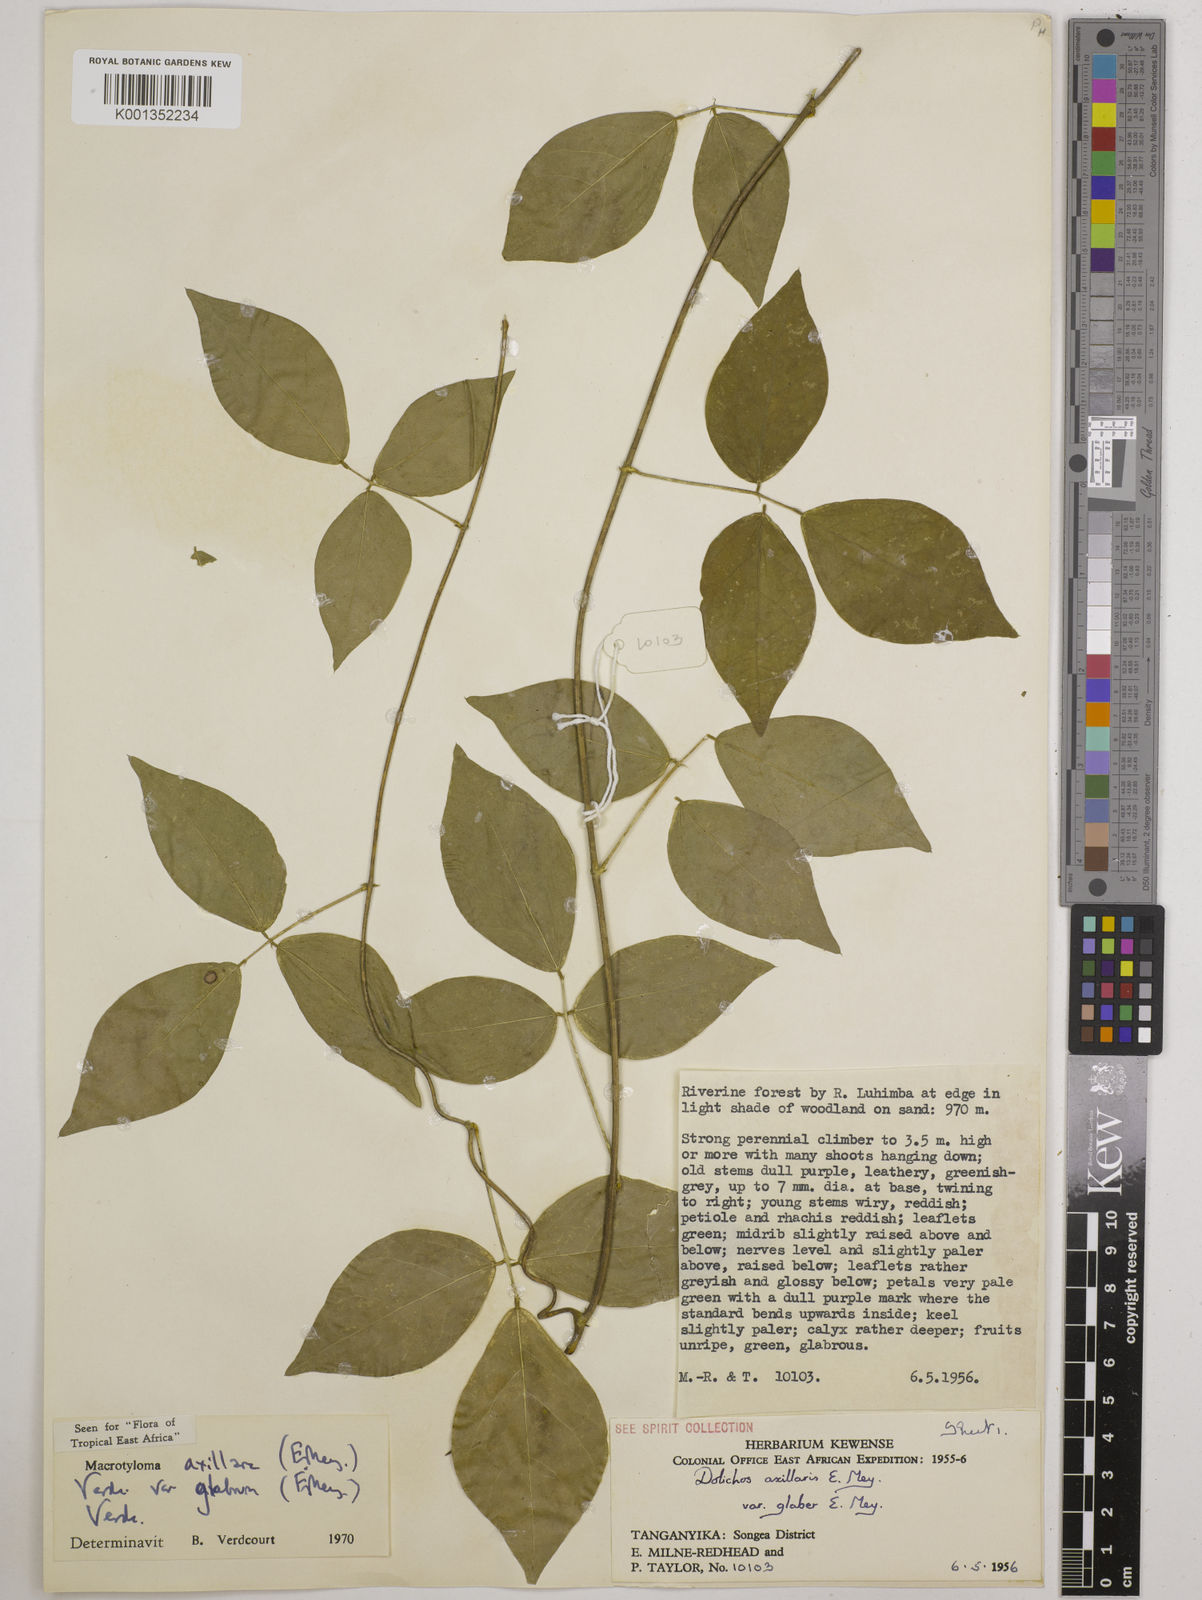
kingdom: Plantae
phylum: Tracheophyta
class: Magnoliopsida
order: Fabales
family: Fabaceae
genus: Macrotyloma
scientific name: Macrotyloma
